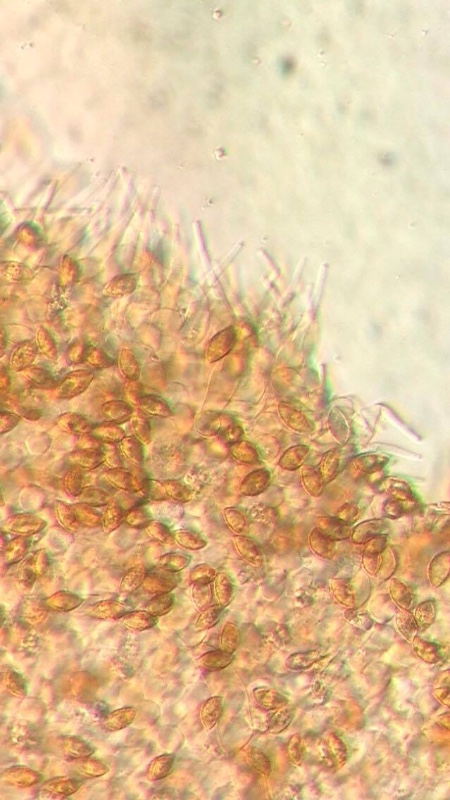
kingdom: Fungi
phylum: Basidiomycota
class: Agaricomycetes
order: Agaricales
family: Hymenogastraceae
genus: Naucoria
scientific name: Naucoria scolecina
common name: mørk elle-knaphat
